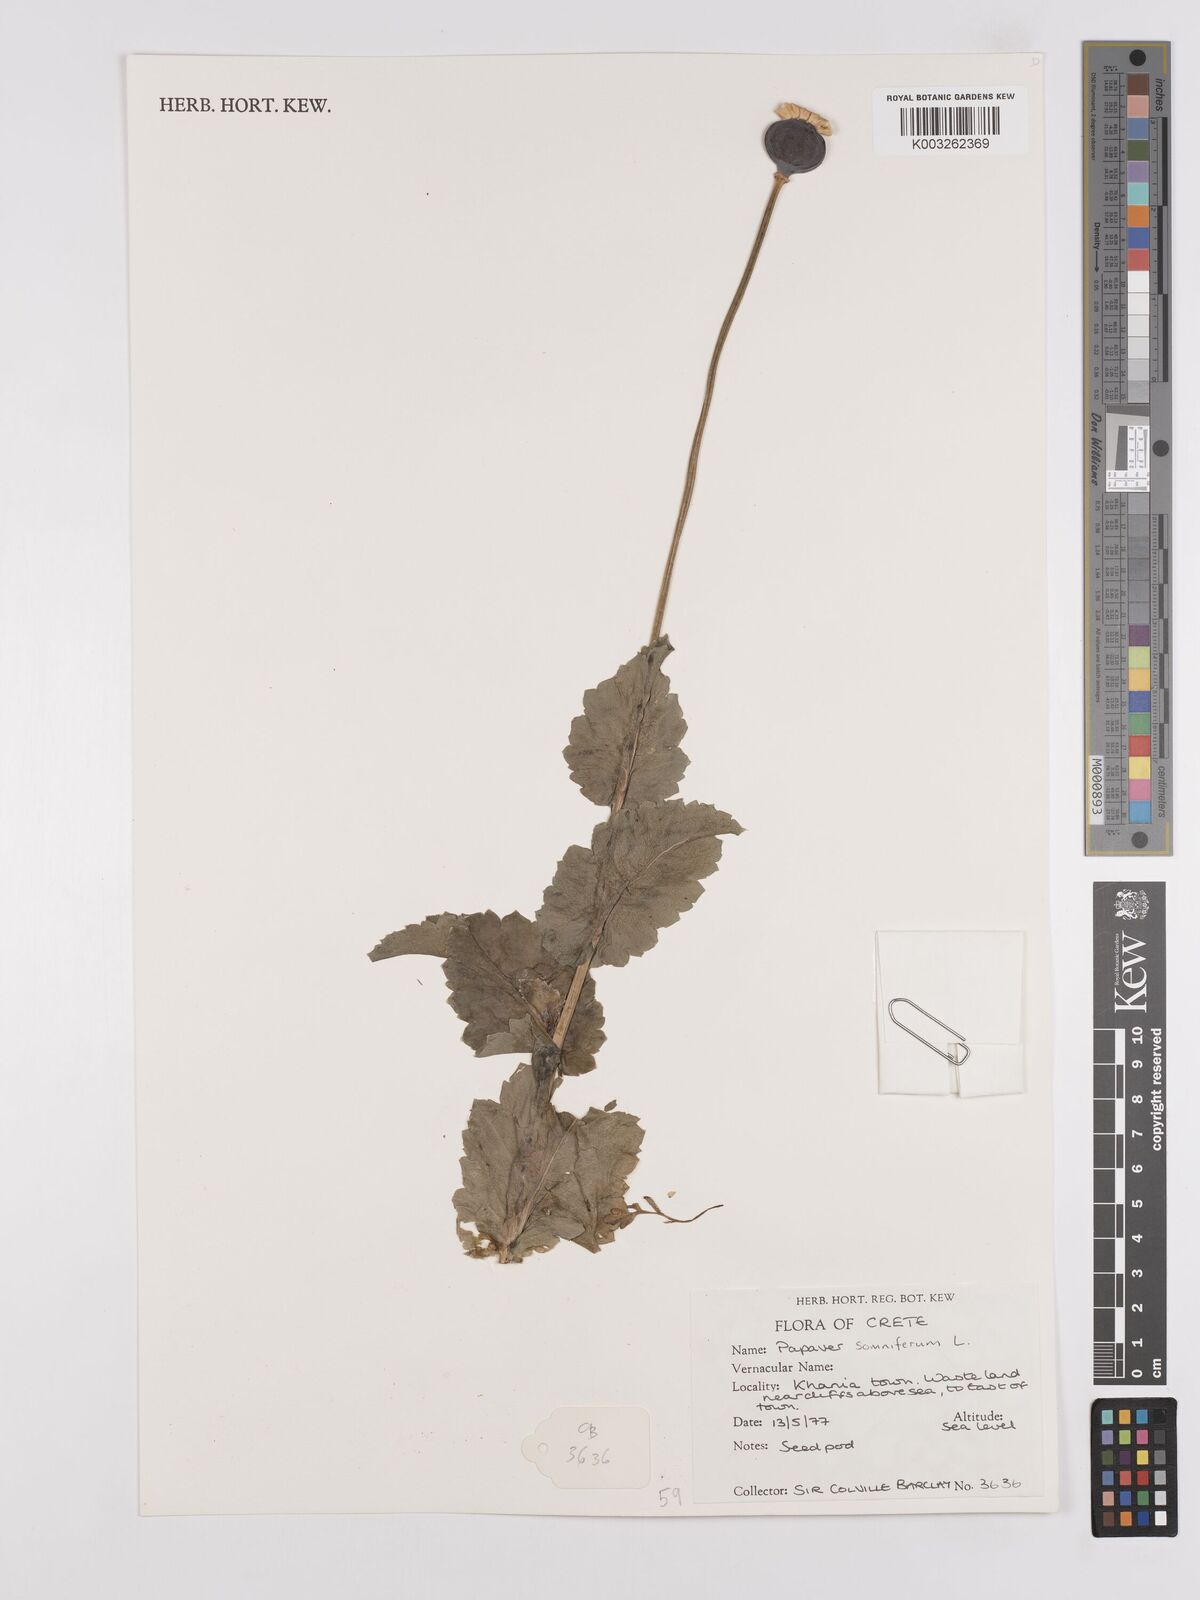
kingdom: Plantae
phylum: Tracheophyta
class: Magnoliopsida
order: Ranunculales
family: Papaveraceae
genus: Papaver
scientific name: Papaver rhoeas
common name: Corn poppy
